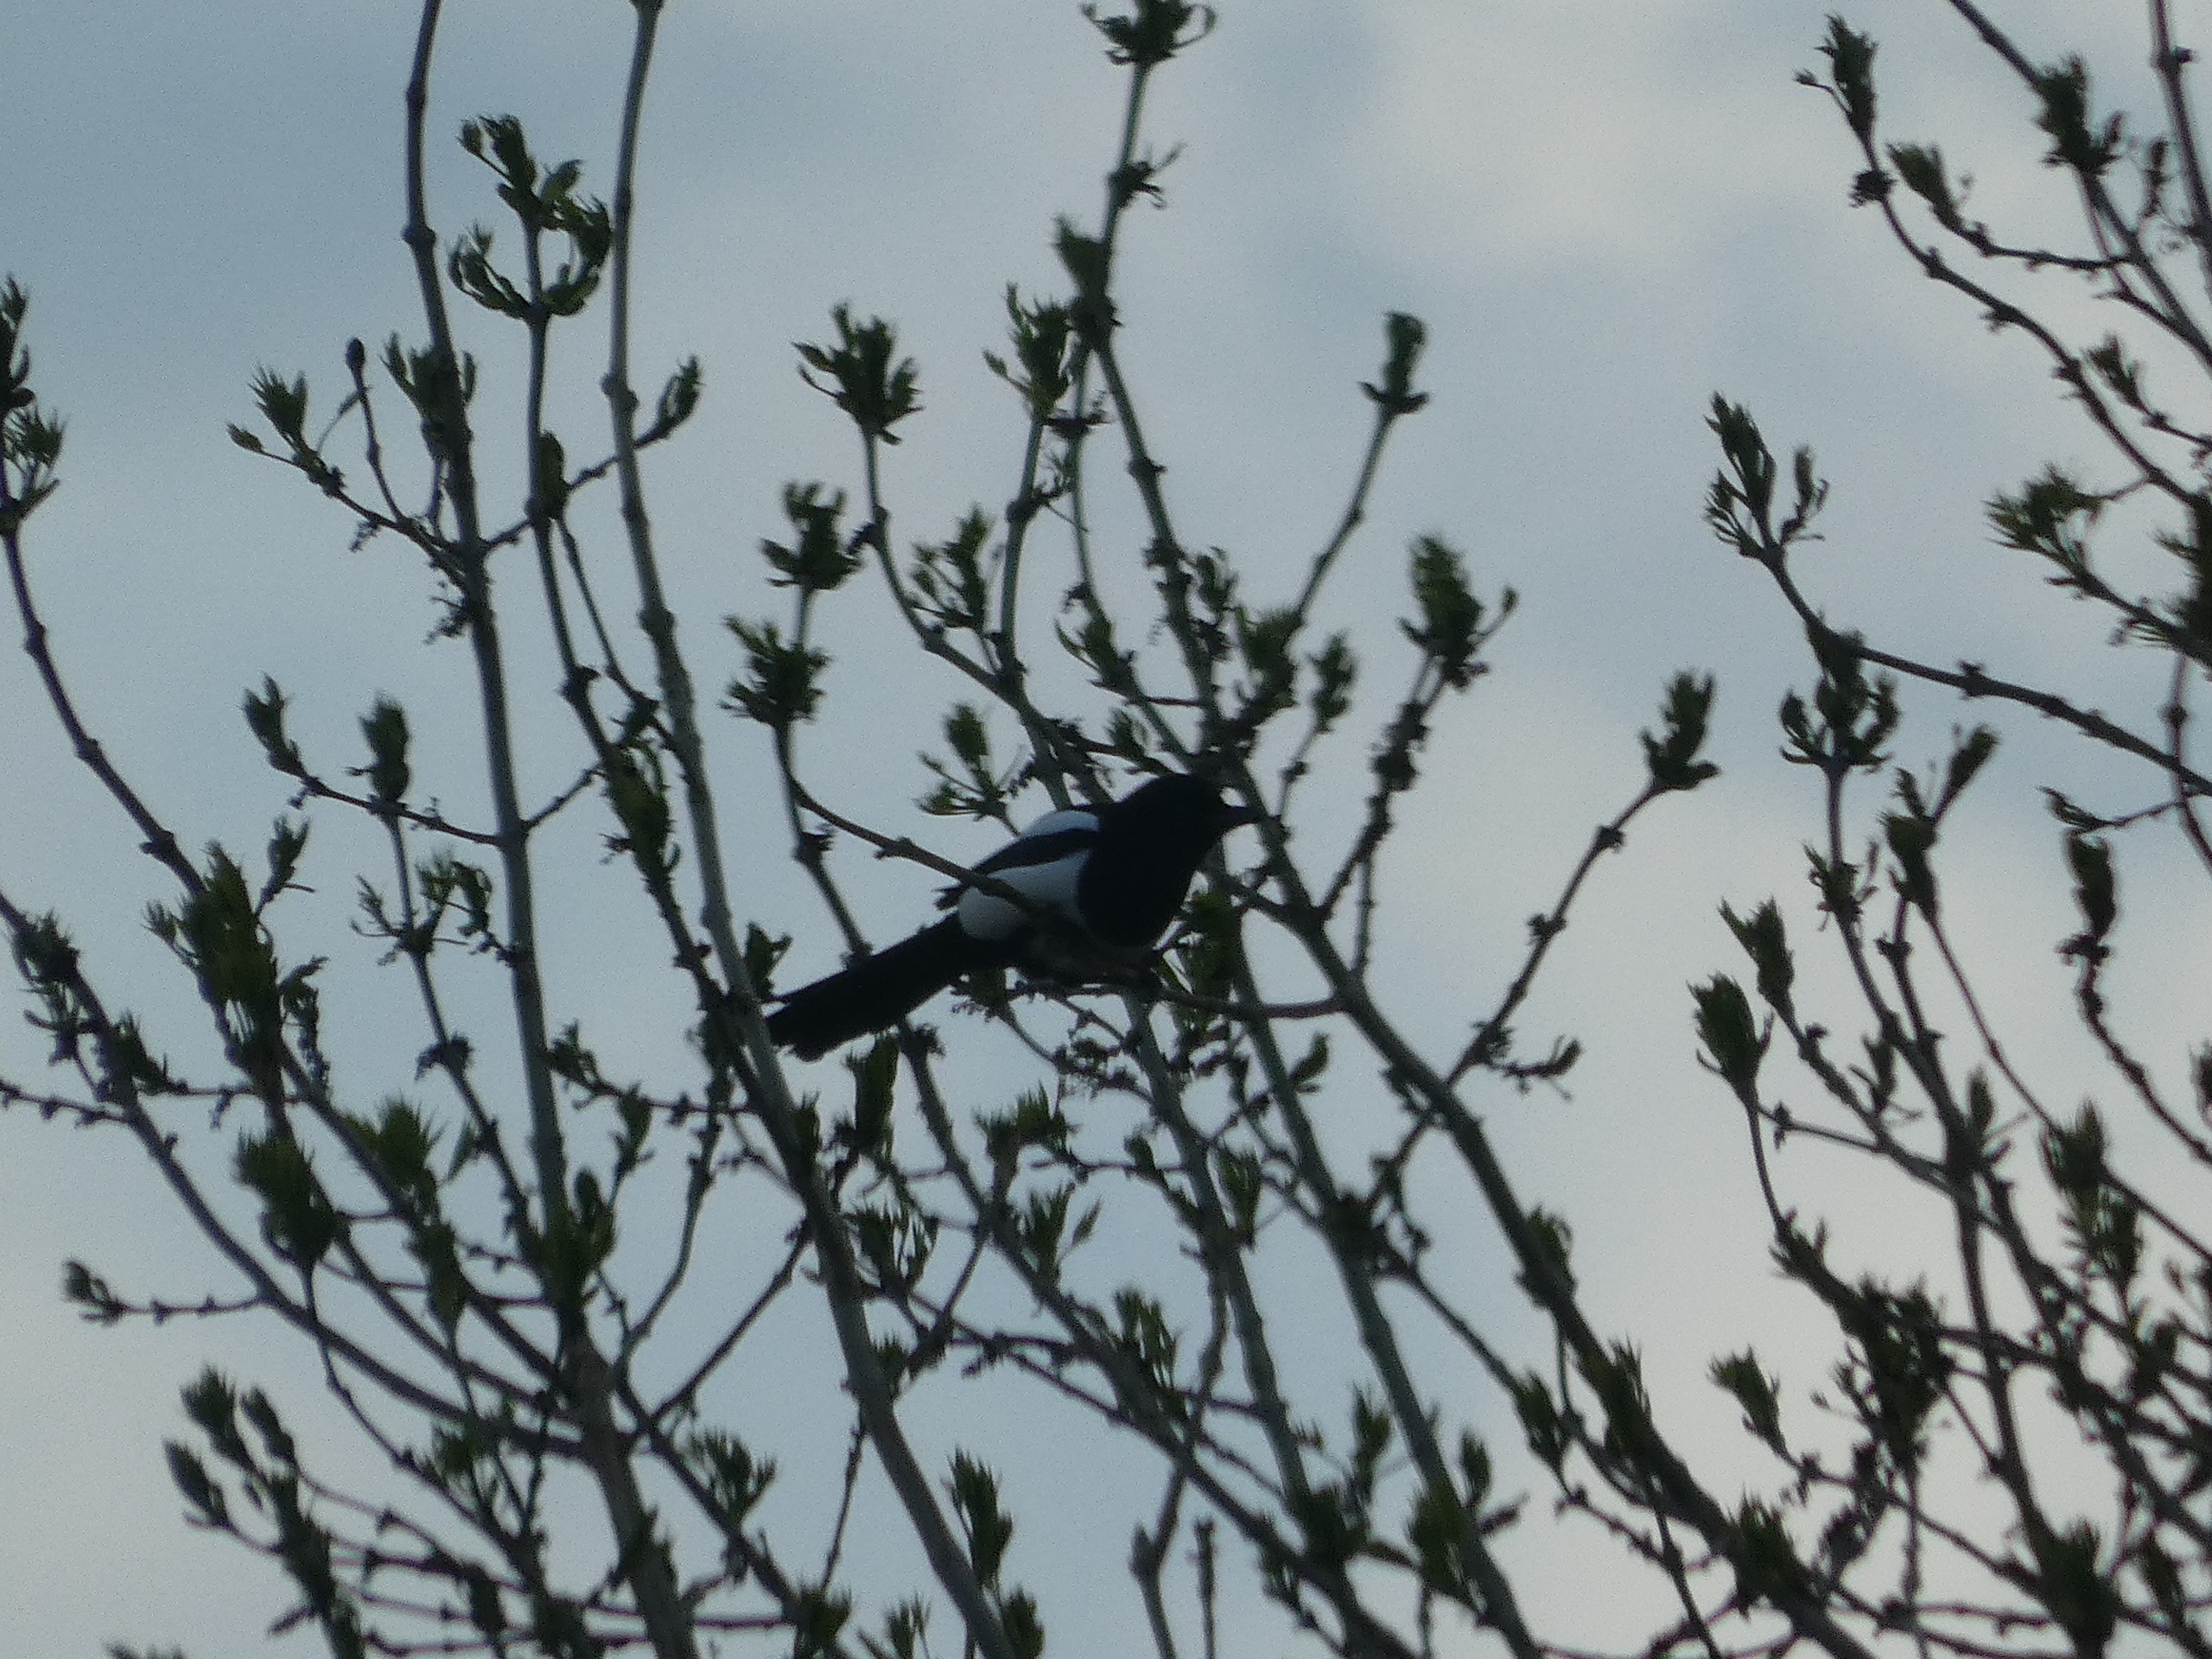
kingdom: Animalia
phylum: Chordata
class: Aves
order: Passeriformes
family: Corvidae
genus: Pica
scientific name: Pica pica
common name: Husskade
